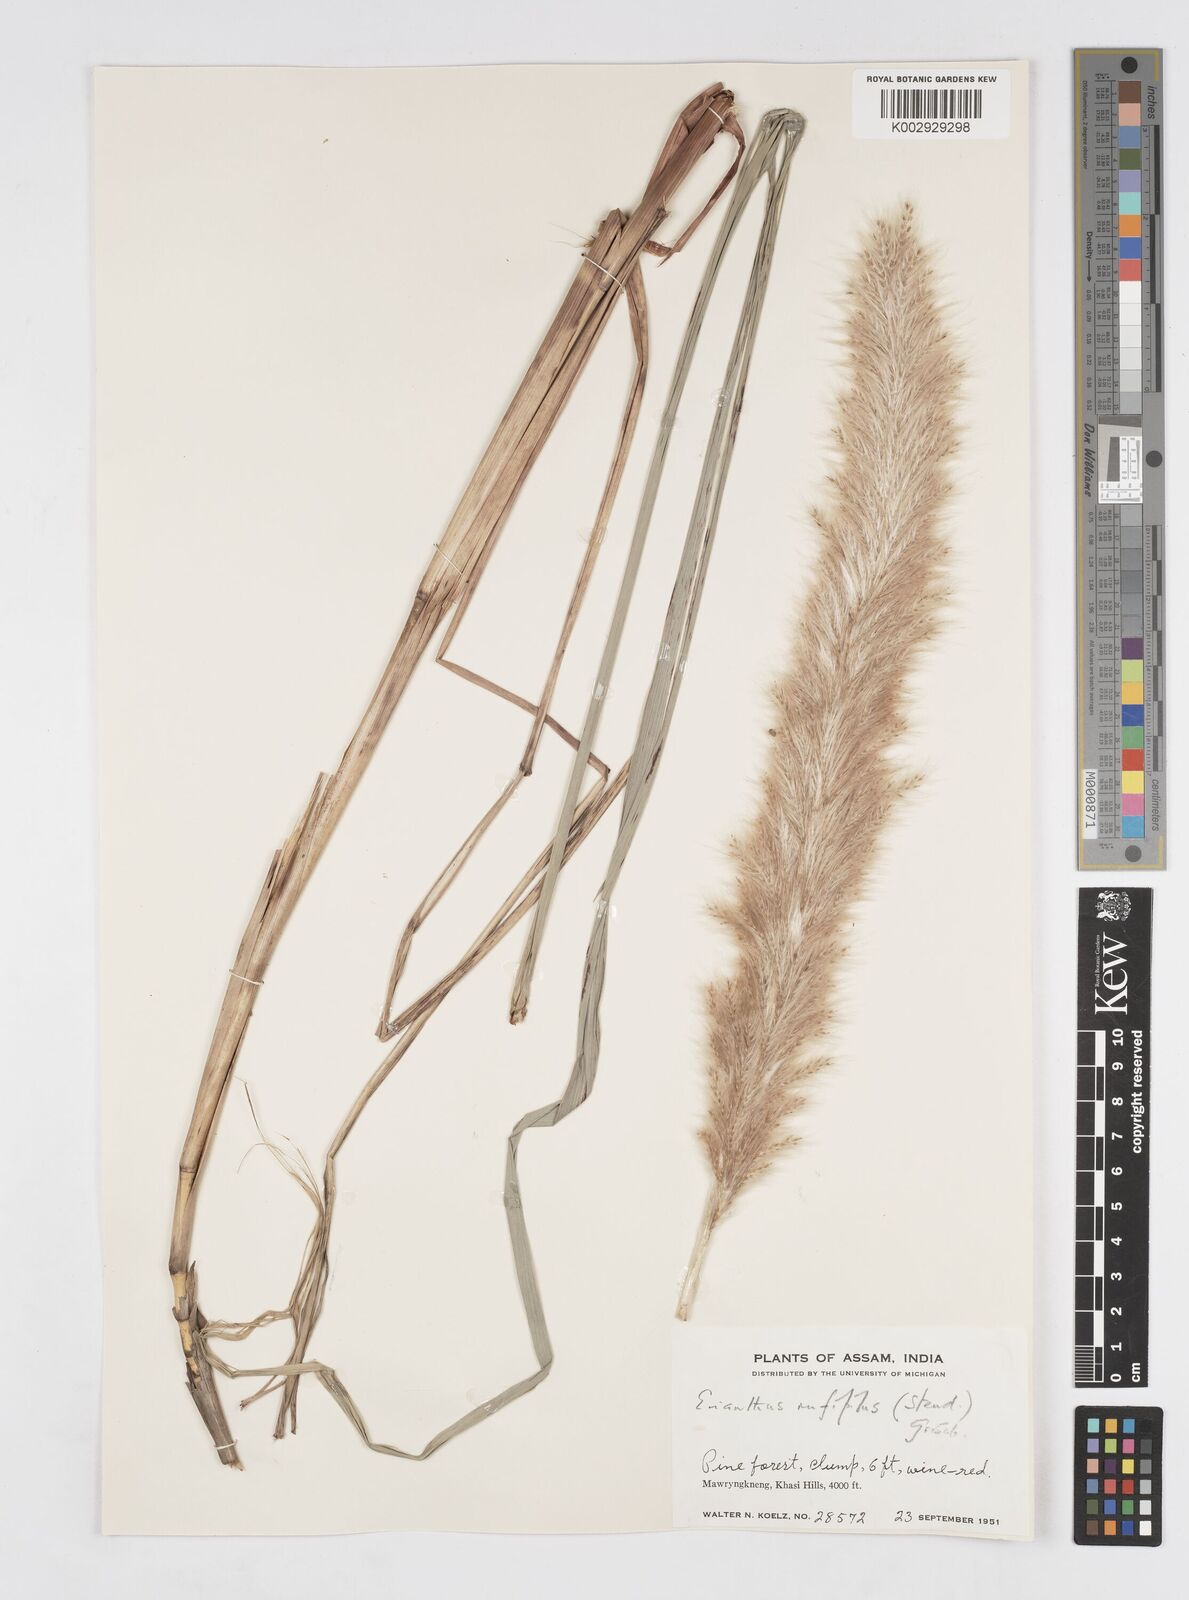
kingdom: Plantae
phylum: Tracheophyta
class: Liliopsida
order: Poales
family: Poaceae
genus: Tripidium
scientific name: Tripidium rufipilum
